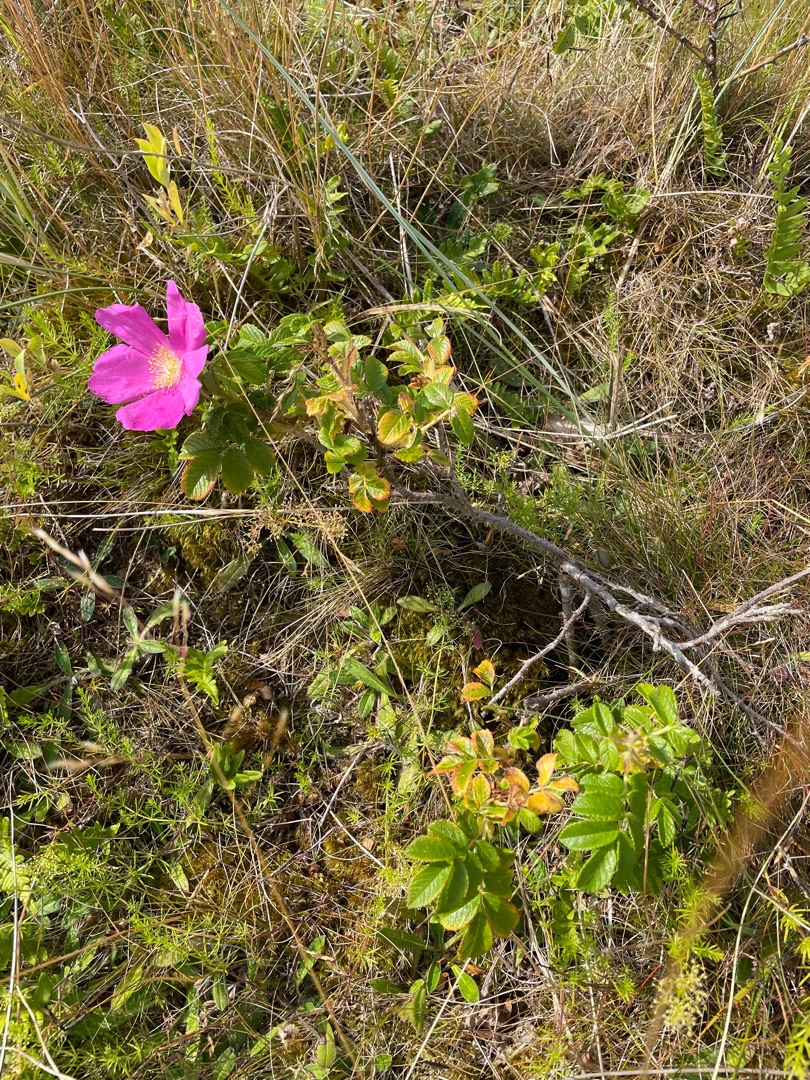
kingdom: Plantae
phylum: Tracheophyta
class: Magnoliopsida
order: Rosales
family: Rosaceae
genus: Rosa
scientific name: Rosa rugosa
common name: Rynket rose
